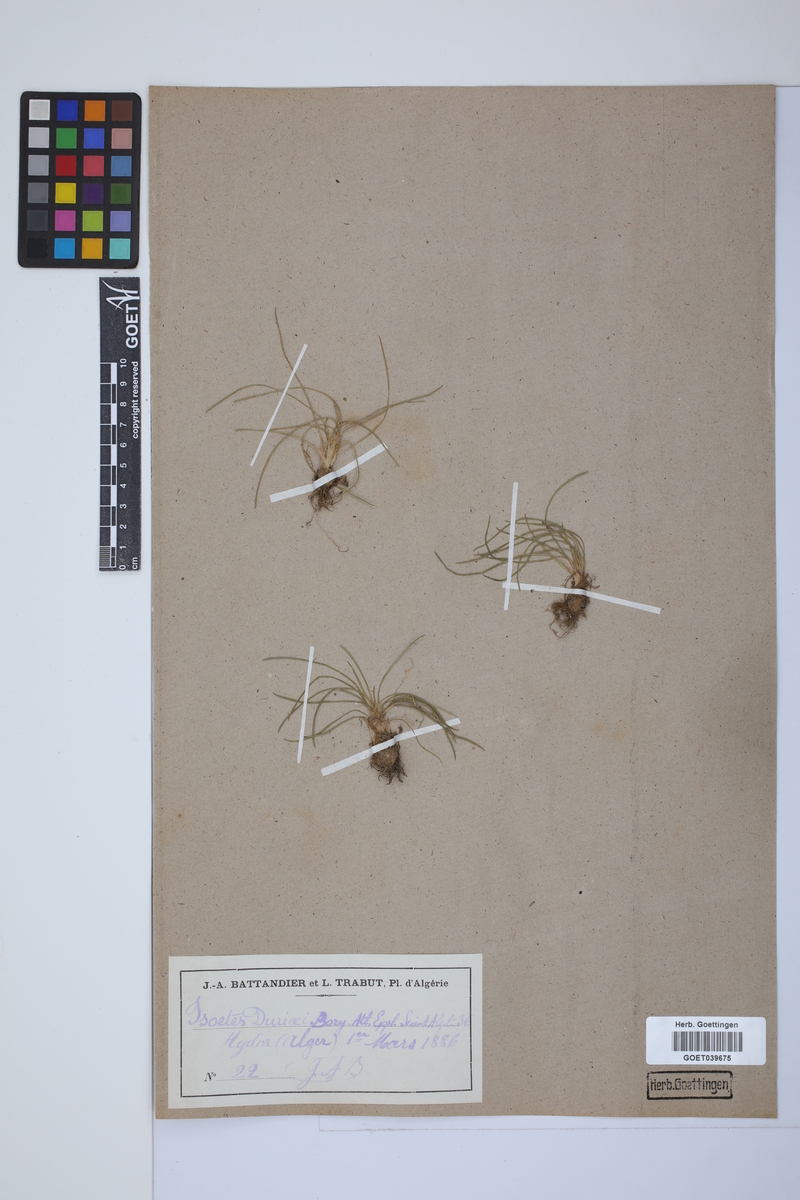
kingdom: Plantae
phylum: Tracheophyta
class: Lycopodiopsida
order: Isoetales
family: Isoetaceae
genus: Isoetes
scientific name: Isoetes duriei
